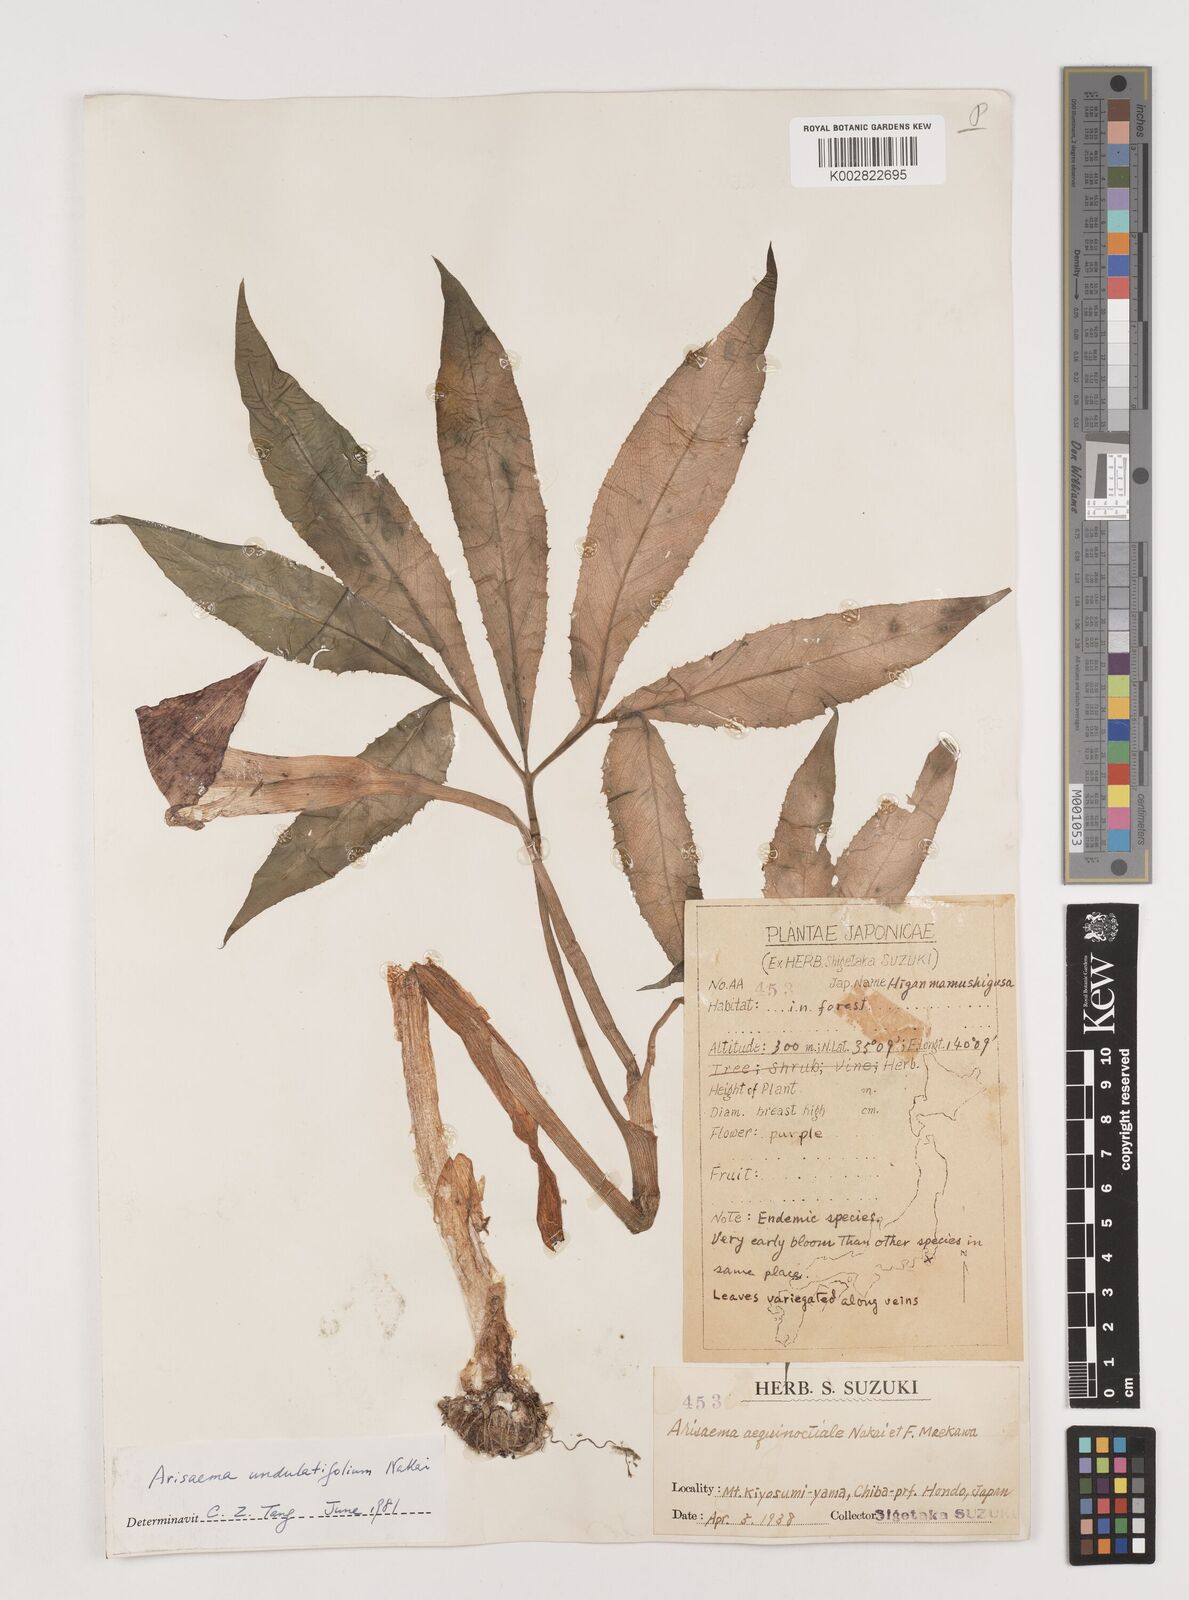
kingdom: Plantae
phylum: Tracheophyta
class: Liliopsida
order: Alismatales
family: Araceae
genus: Arisaema
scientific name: Arisaema undulatifolium
